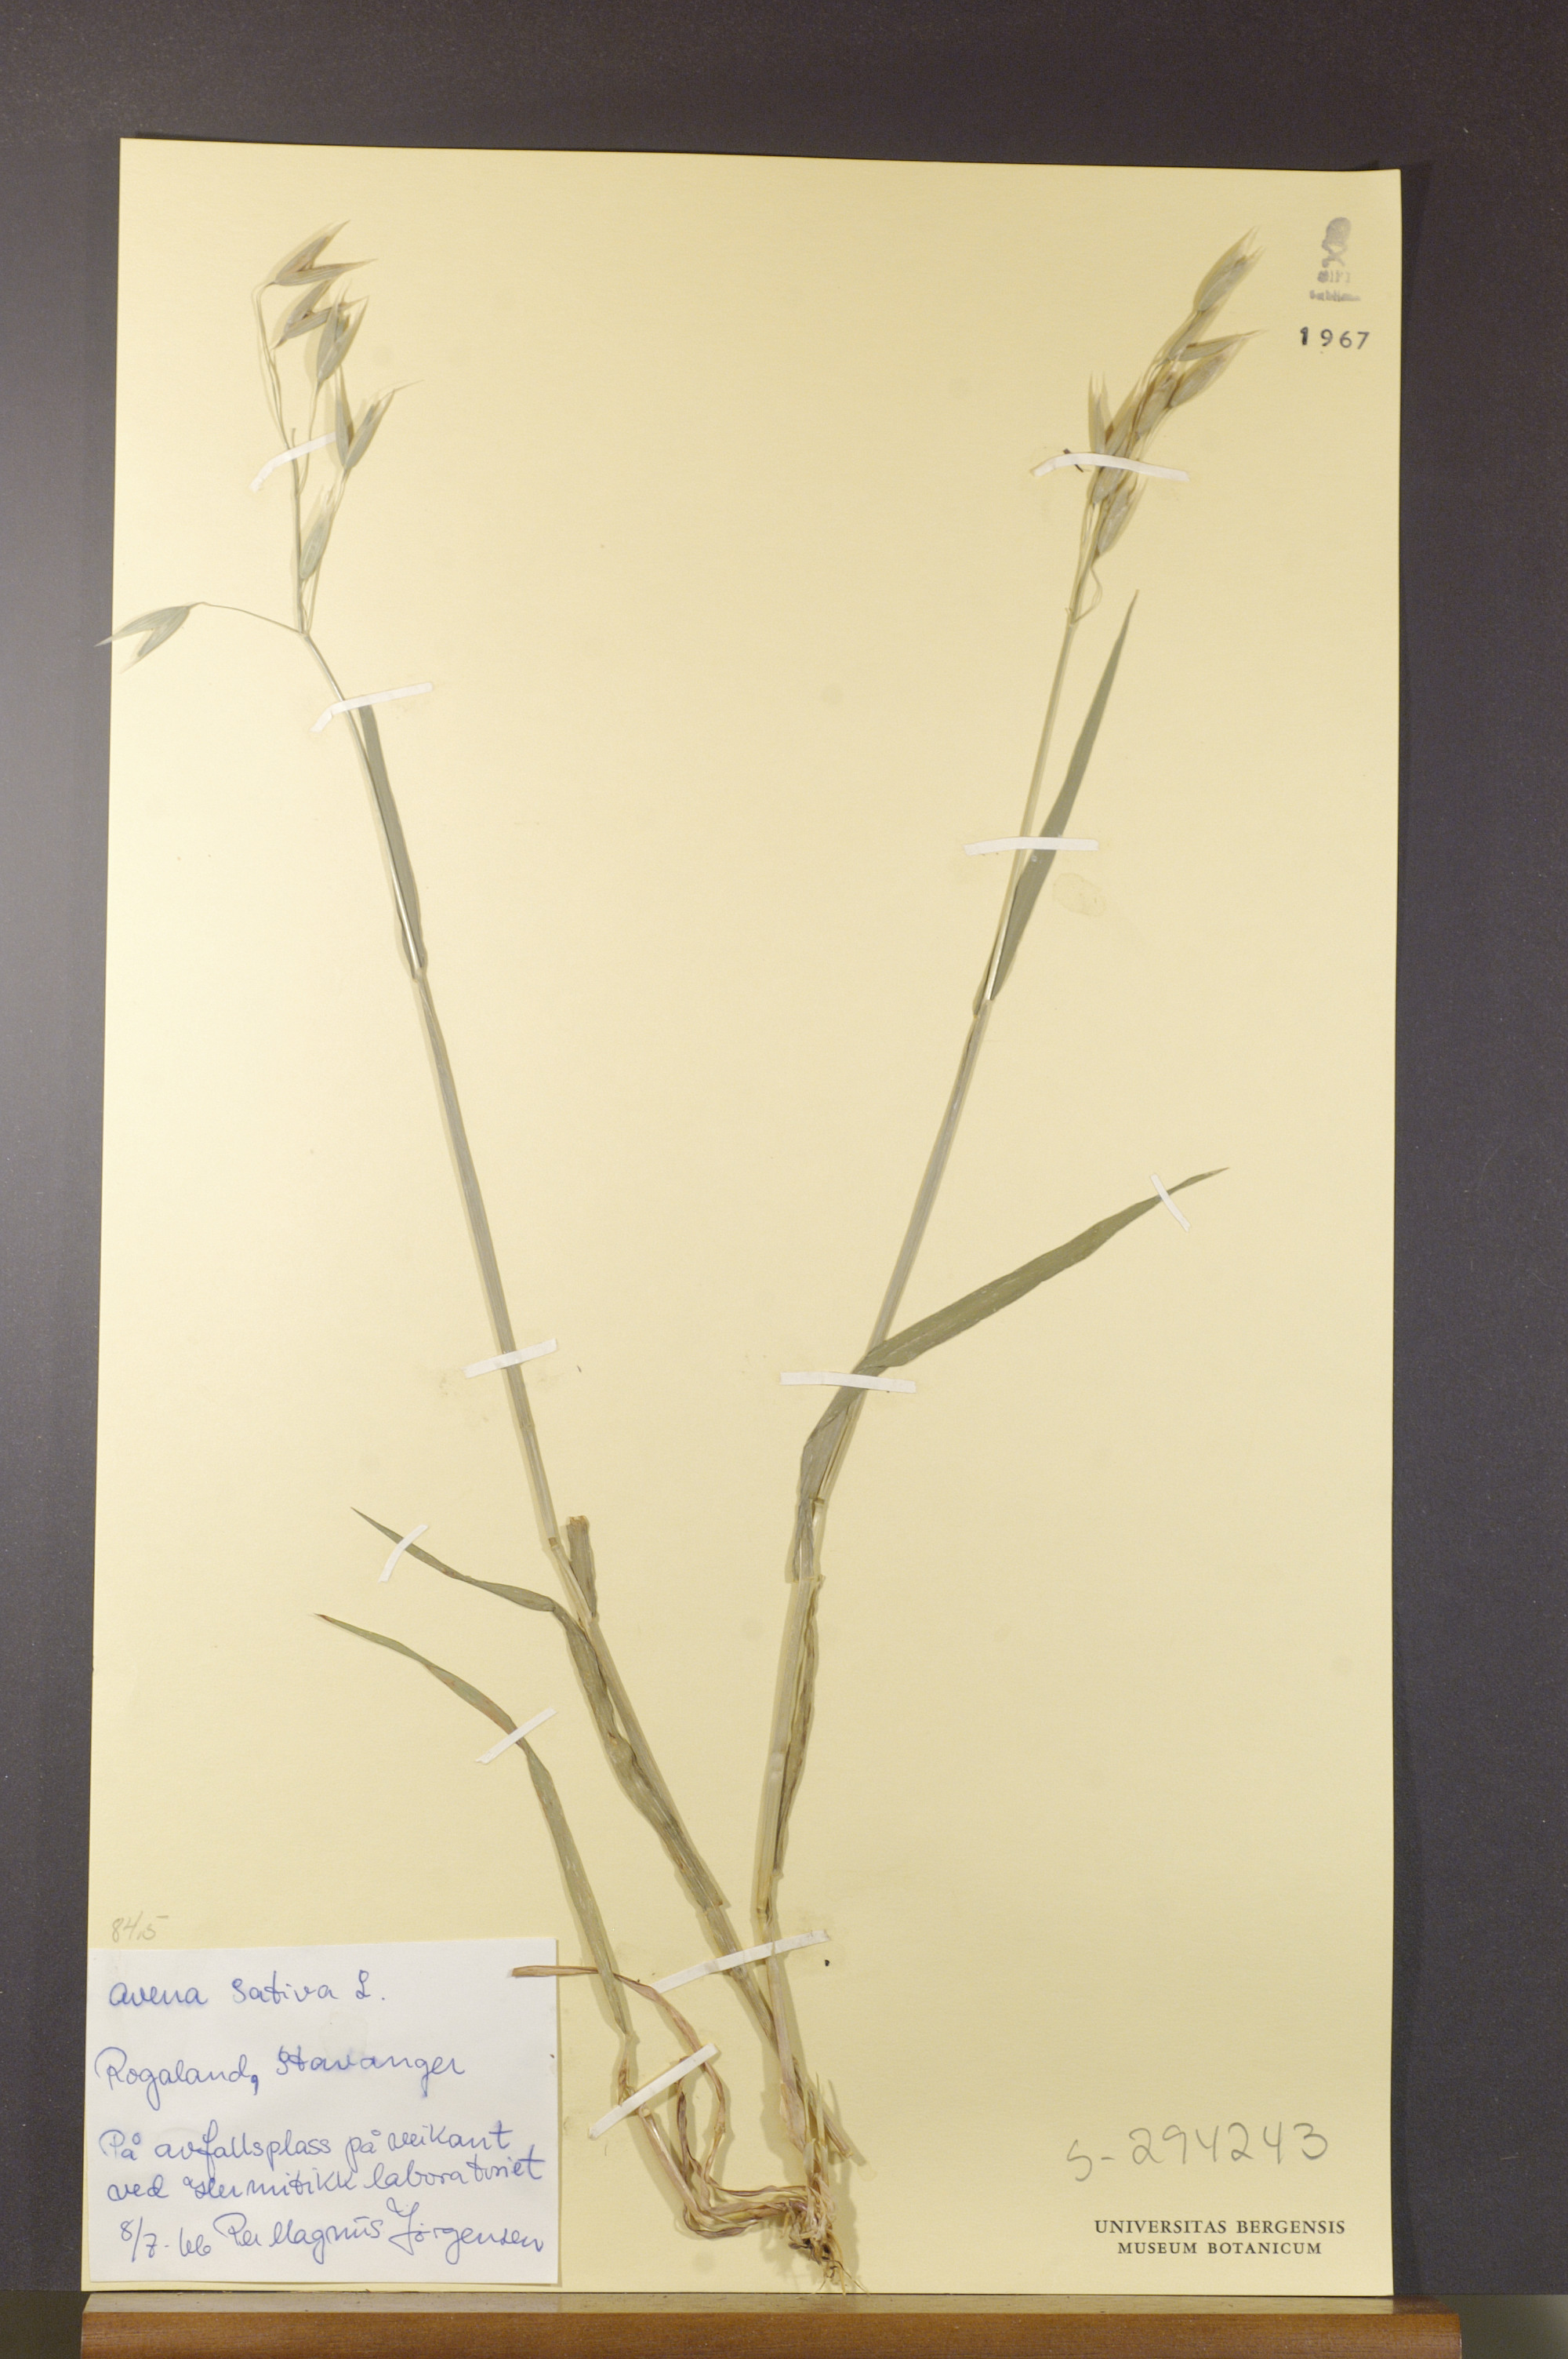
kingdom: Plantae
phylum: Tracheophyta
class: Liliopsida
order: Poales
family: Poaceae
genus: Avena
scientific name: Avena sativa
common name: Oat
